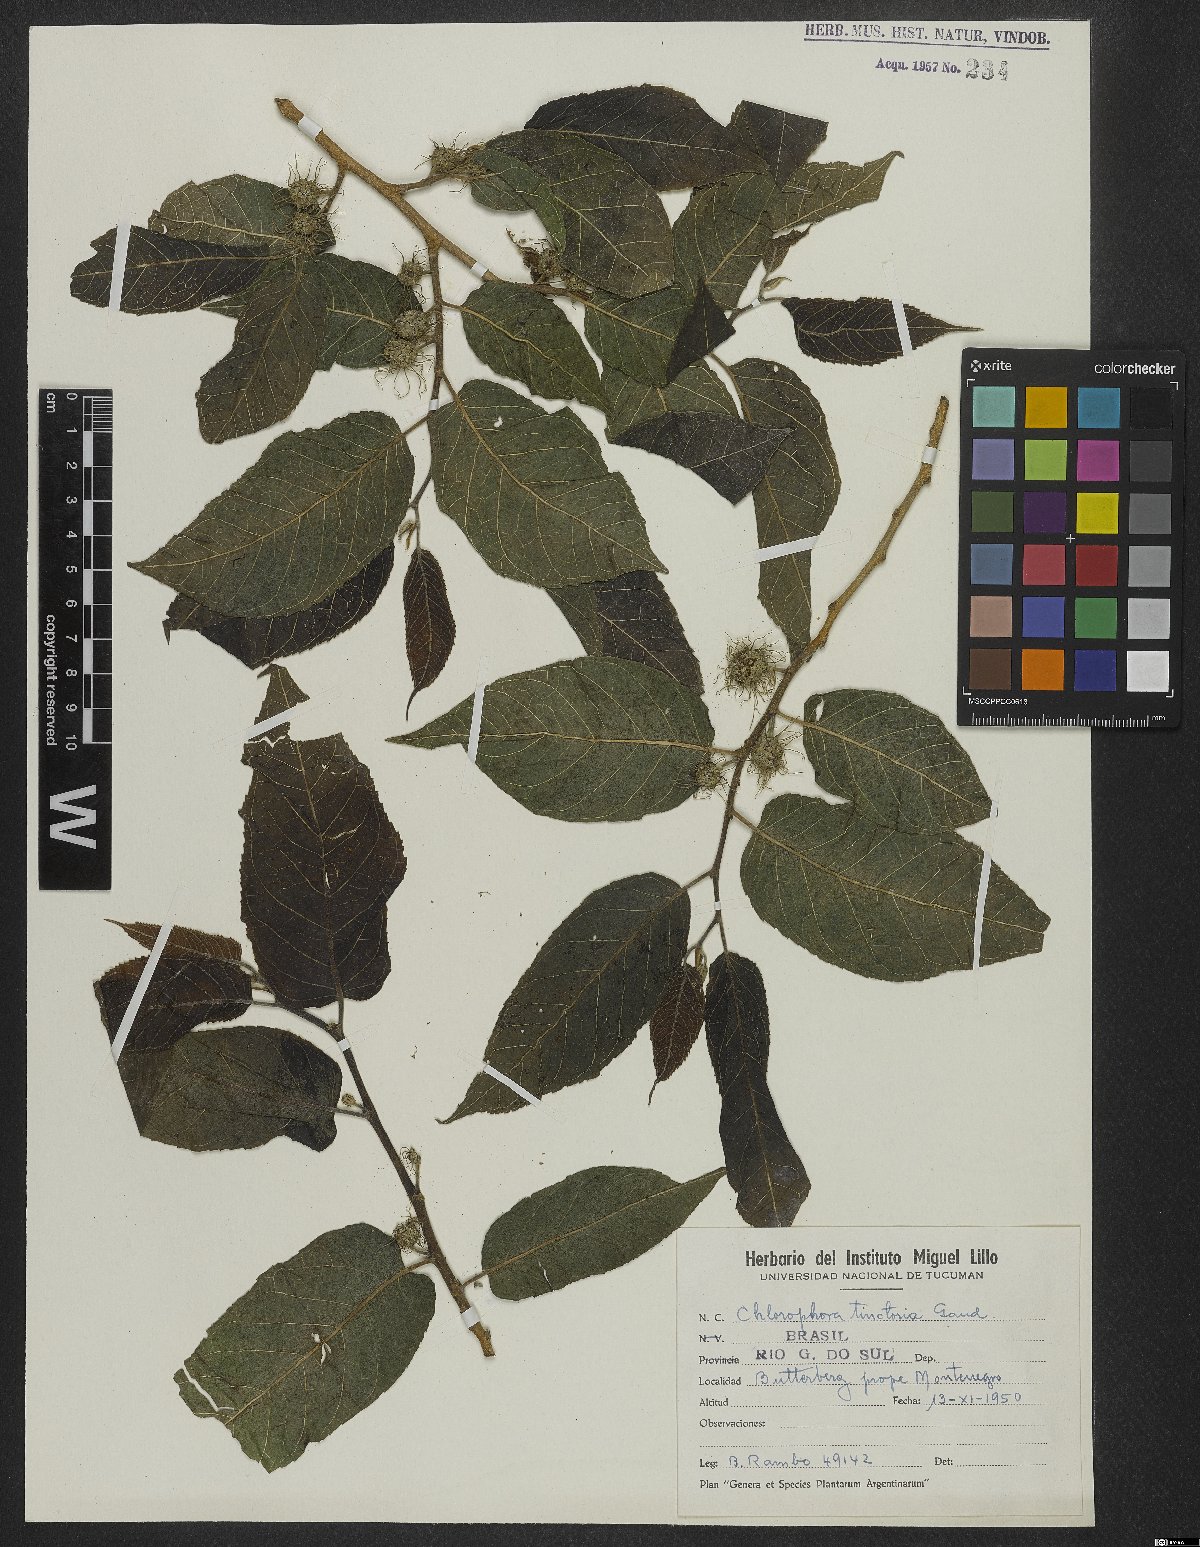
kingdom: Plantae
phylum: Tracheophyta
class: Magnoliopsida
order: Rosales
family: Moraceae
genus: Maclura
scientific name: Maclura tinctoria
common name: Old fustic
